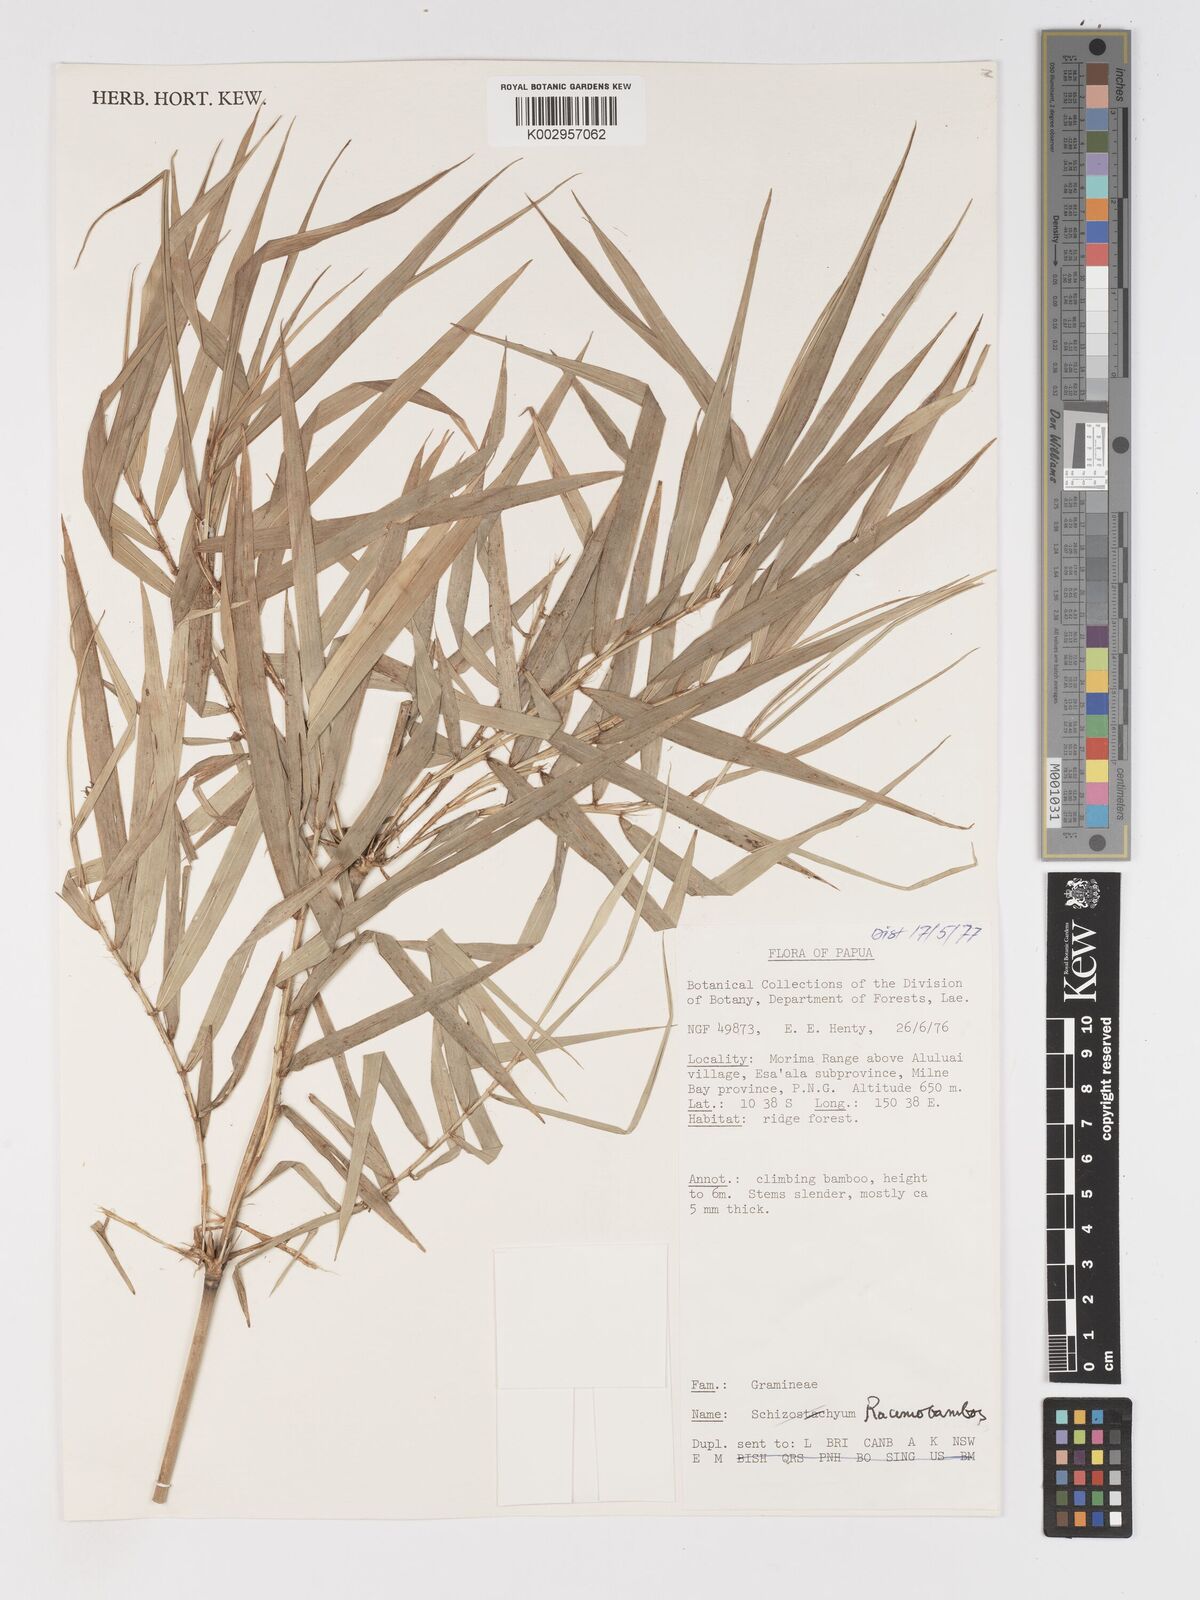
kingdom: Plantae
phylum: Tracheophyta
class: Liliopsida
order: Poales
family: Poaceae
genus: Racemobambos
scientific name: Racemobambos
